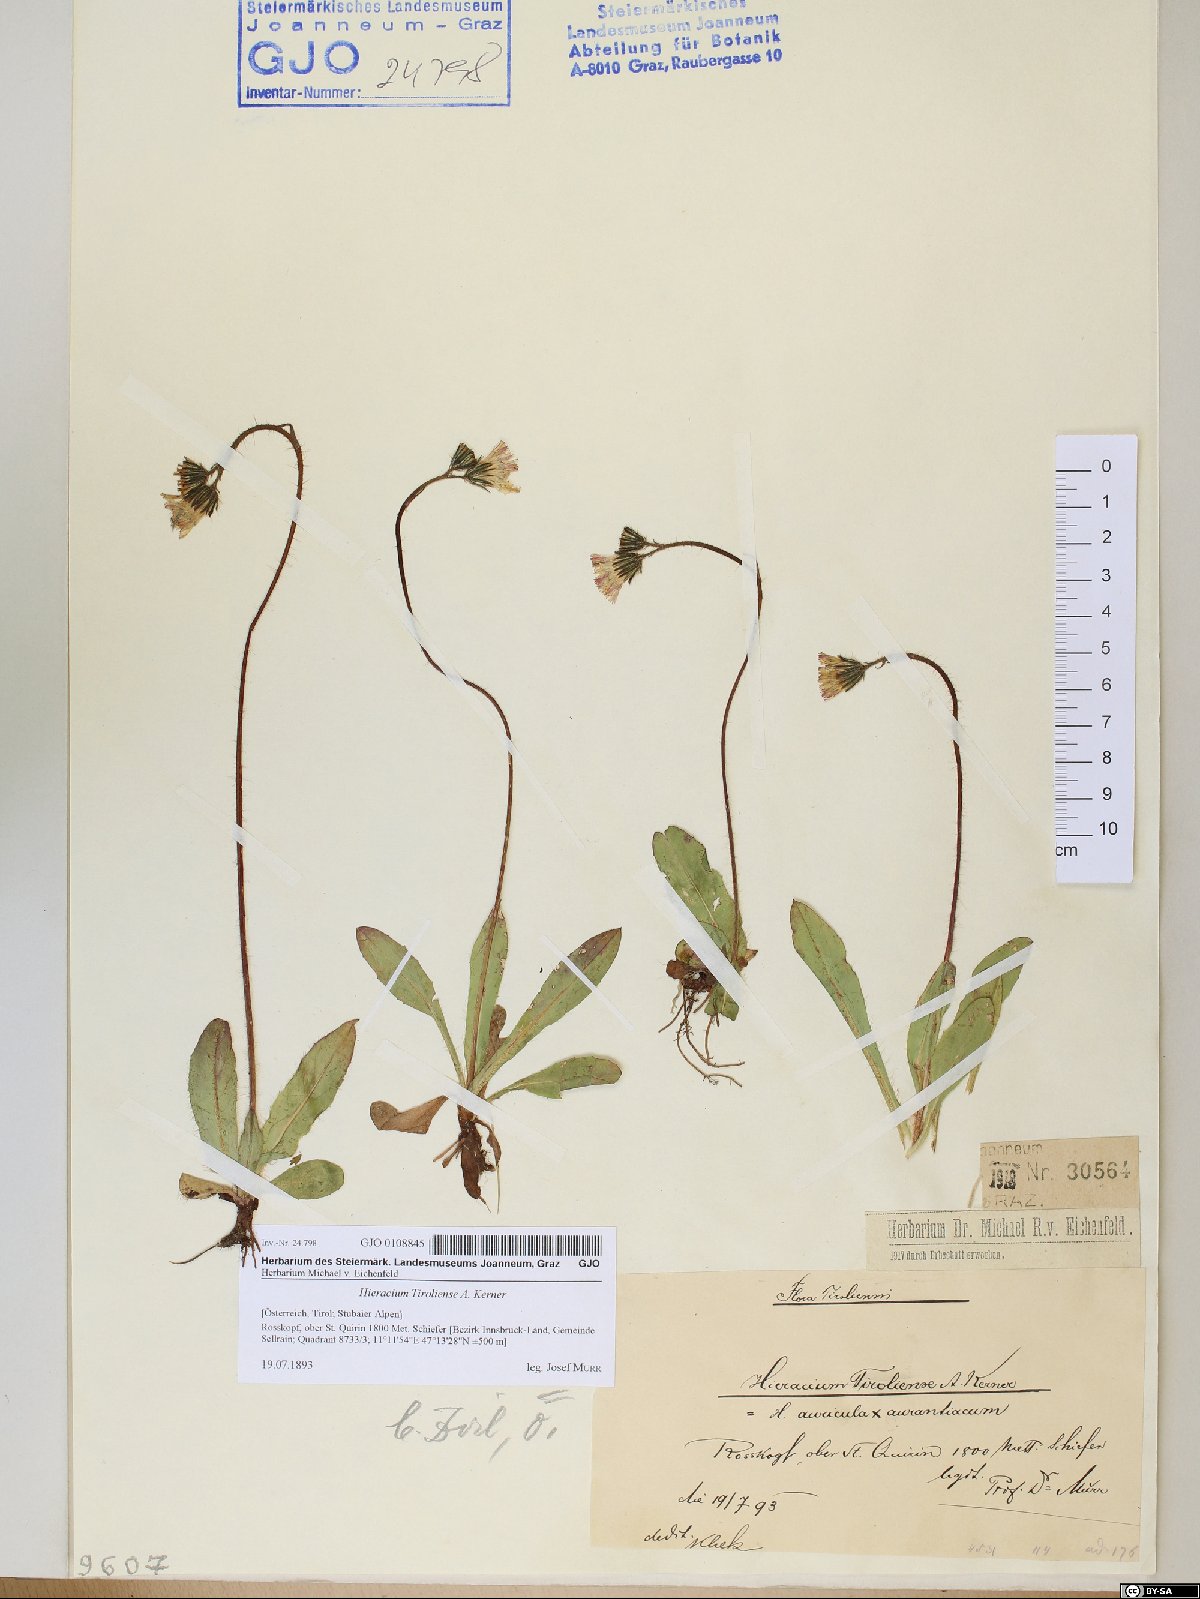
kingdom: Plantae
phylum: Tracheophyta
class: Magnoliopsida
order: Asterales
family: Asteraceae
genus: Pilosella
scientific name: Pilosella fusca
